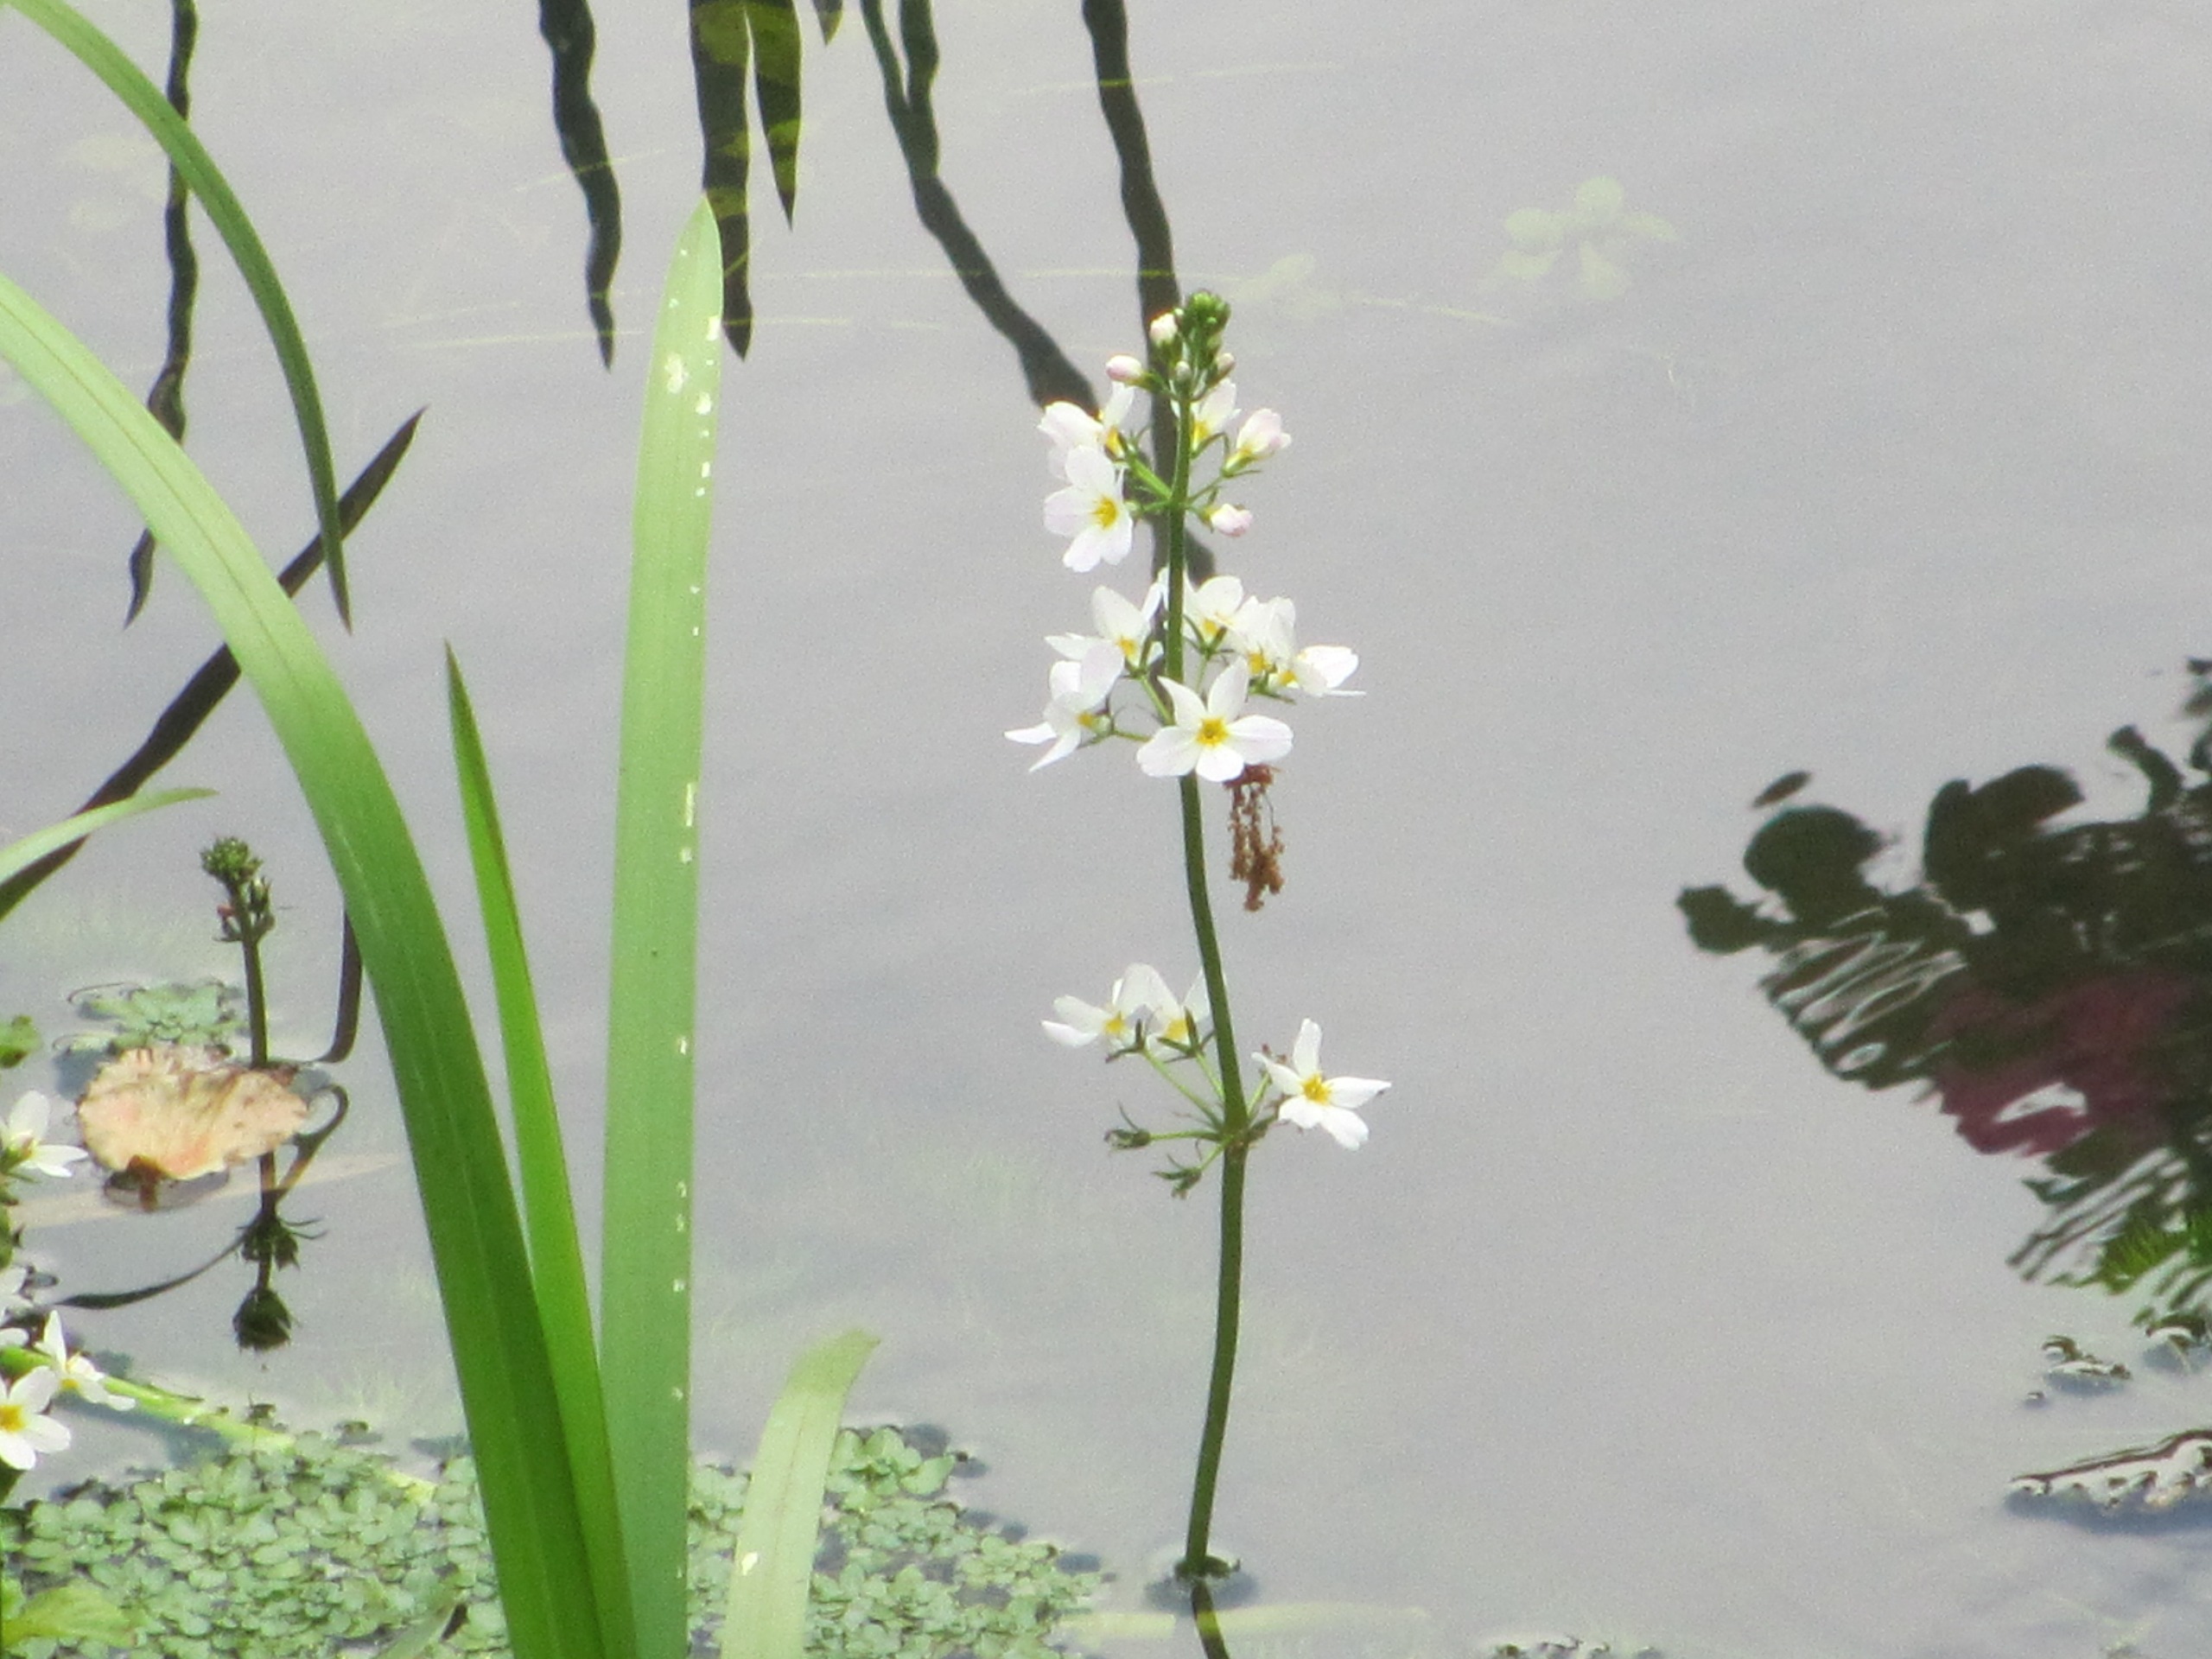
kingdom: Plantae
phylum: Tracheophyta
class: Magnoliopsida
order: Ericales
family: Primulaceae
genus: Hottonia
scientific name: Hottonia palustris
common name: Vandrøllike
